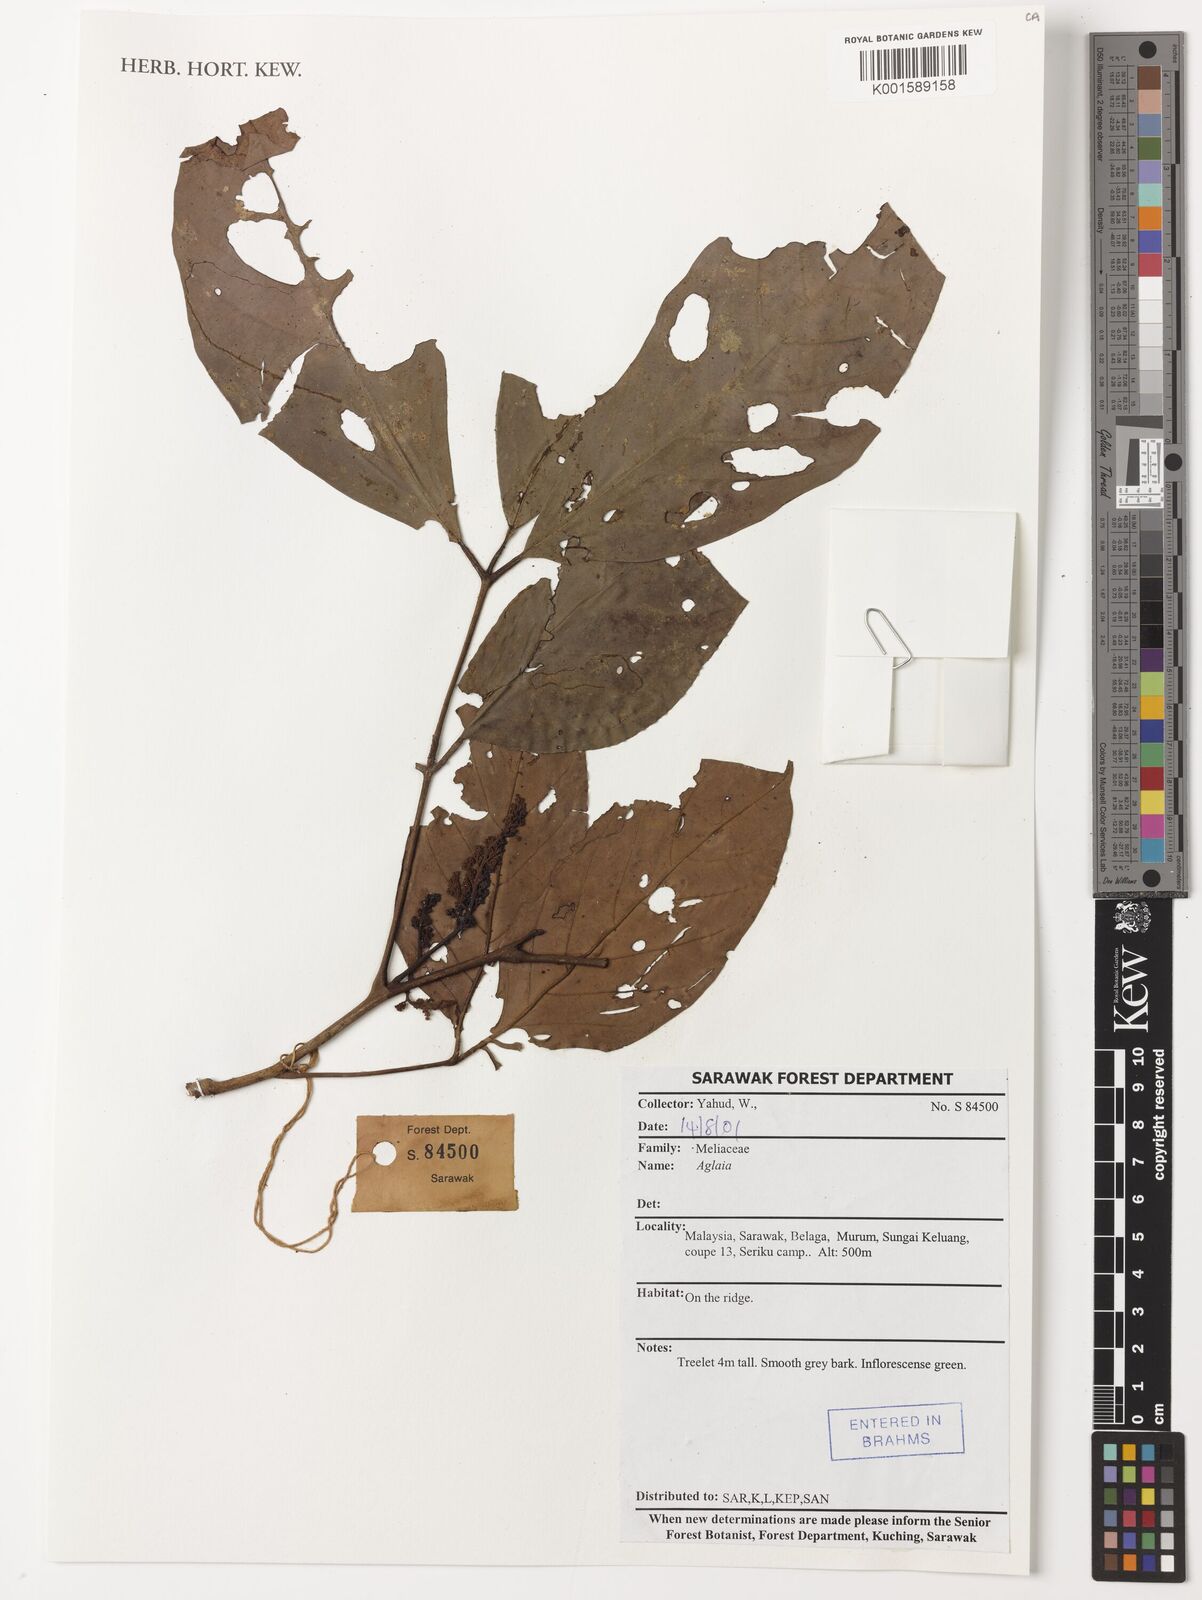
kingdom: Plantae
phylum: Tracheophyta
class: Magnoliopsida
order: Sapindales
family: Meliaceae
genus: Aglaia
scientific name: Aglaia
